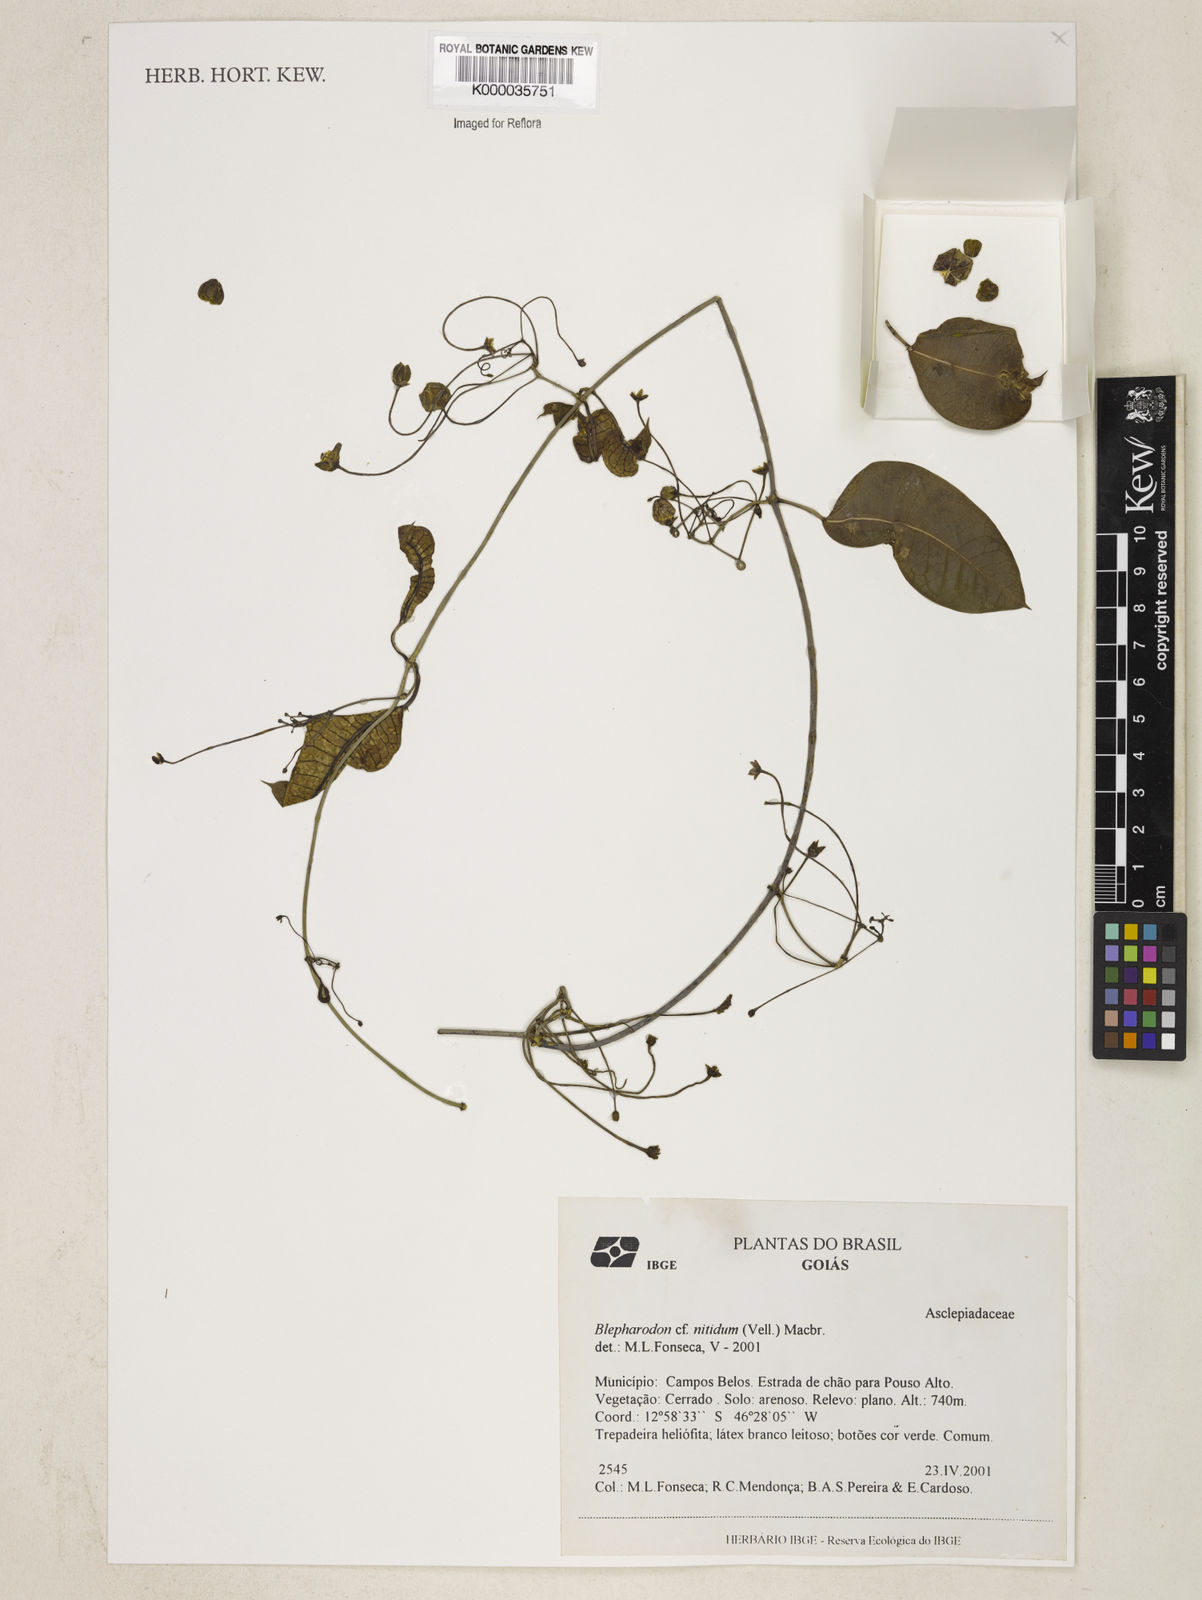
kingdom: Plantae
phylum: Tracheophyta
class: Magnoliopsida
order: Gentianales
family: Apocynaceae
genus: Blepharodon
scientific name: Blepharodon pictum
